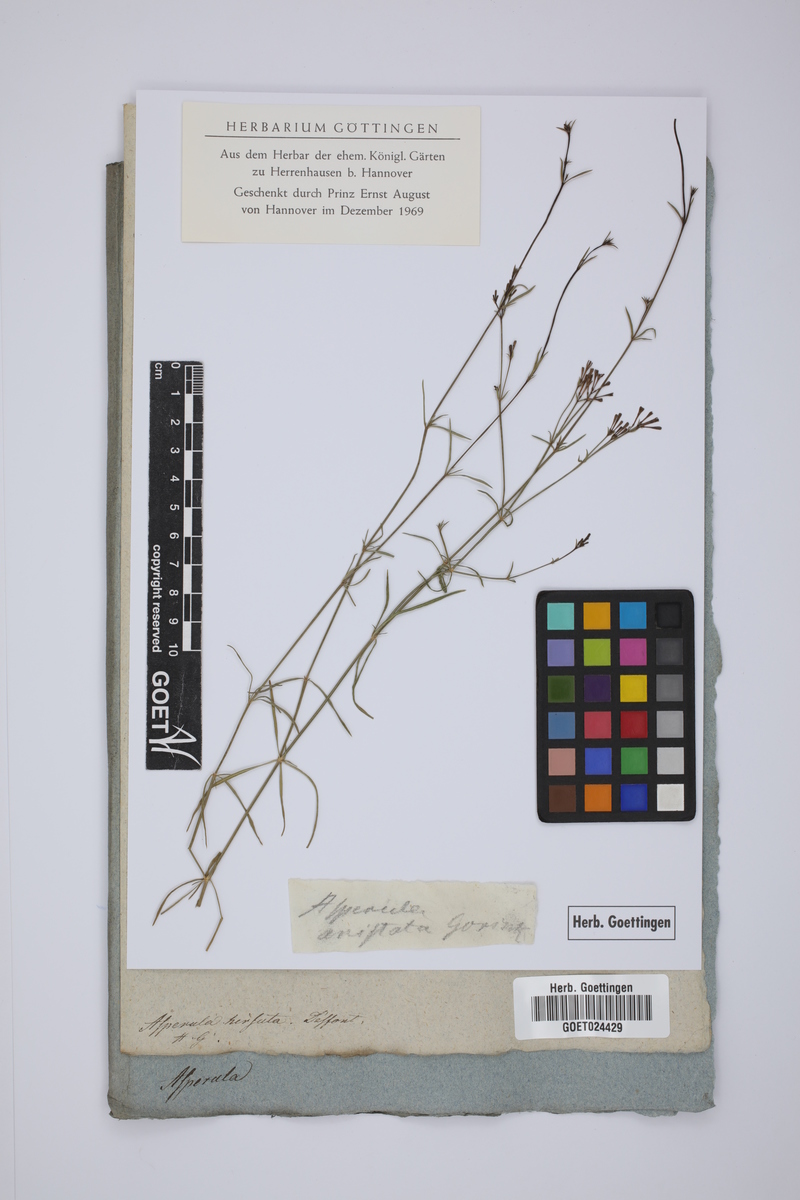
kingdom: Plantae
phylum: Tracheophyta
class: Magnoliopsida
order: Gentianales
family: Rubiaceae
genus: Hexaphylla
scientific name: Hexaphylla hirsuta
